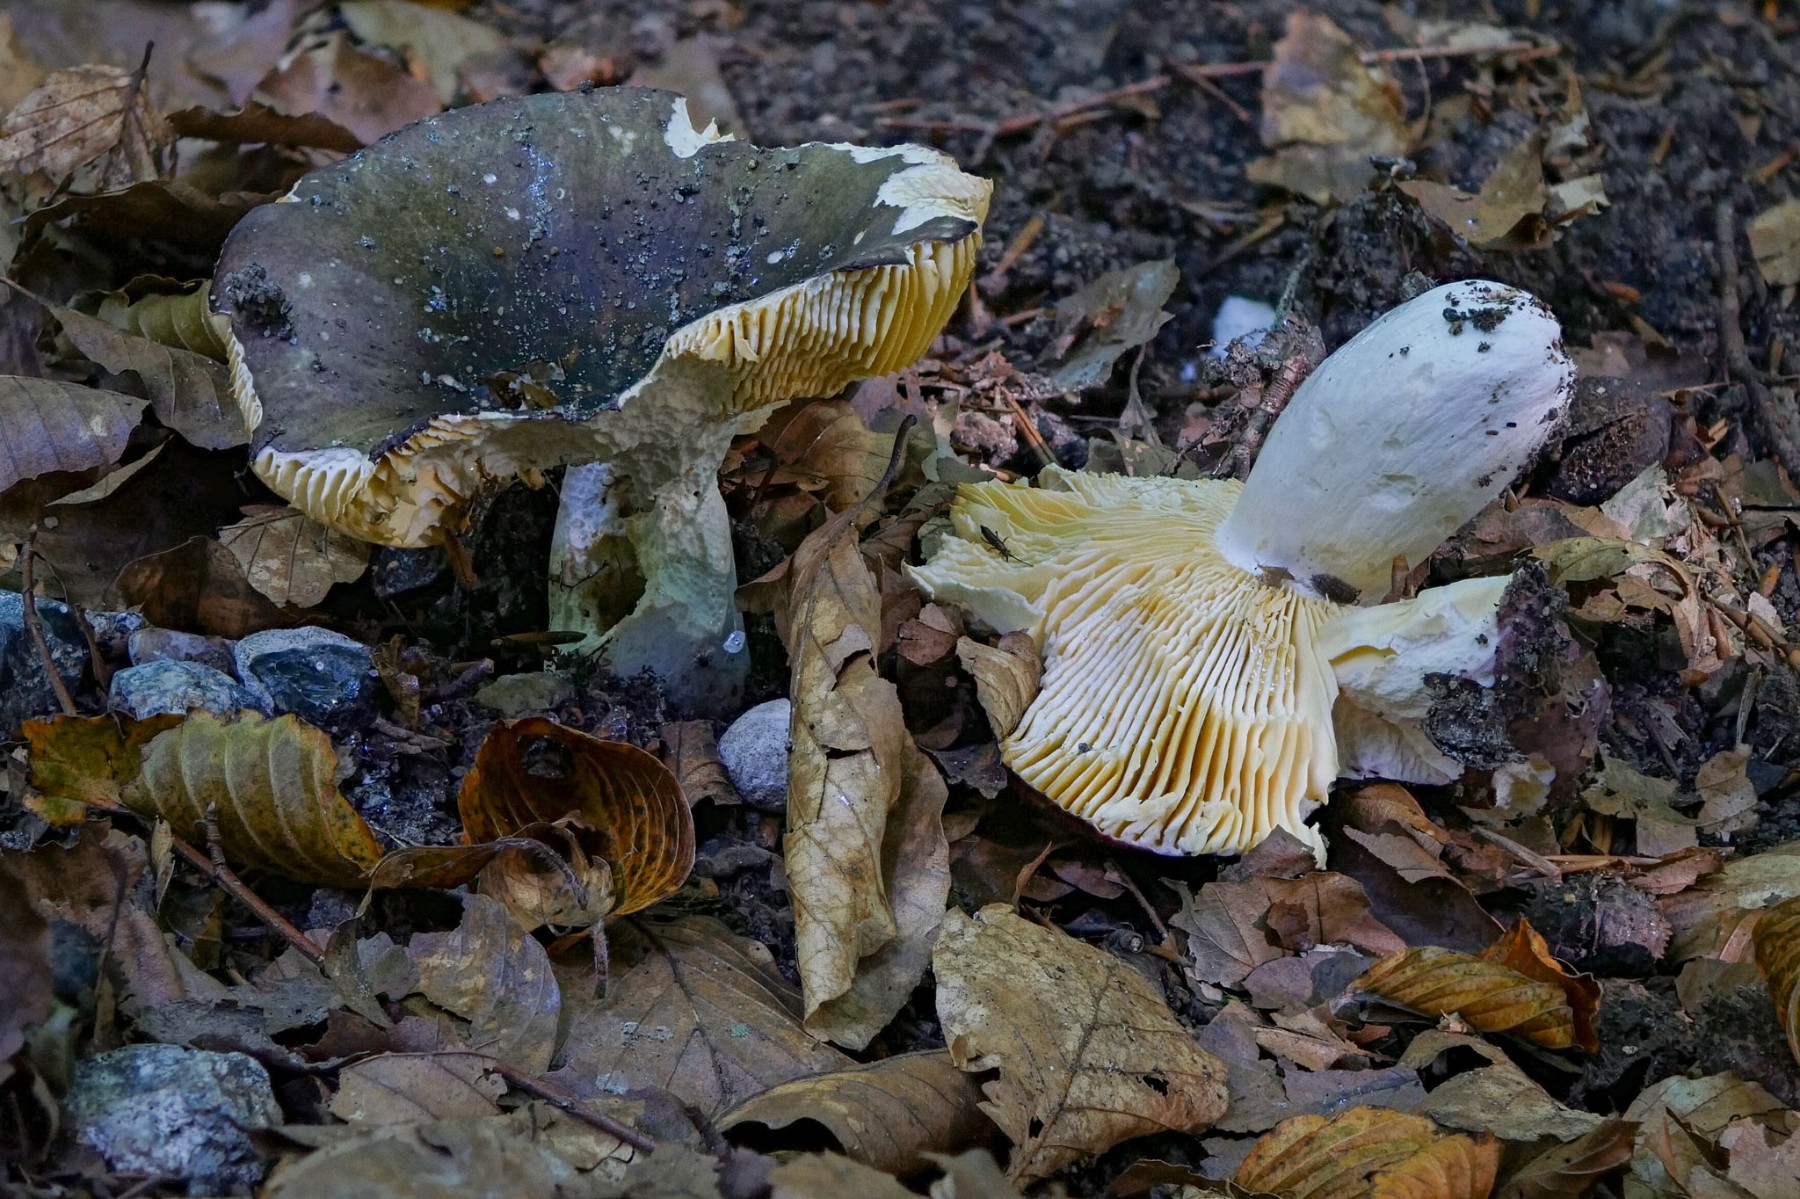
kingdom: Fungi
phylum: Basidiomycota
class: Agaricomycetes
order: Russulales
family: Russulaceae
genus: Russula
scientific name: Russula romellii
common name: romells skørhat
